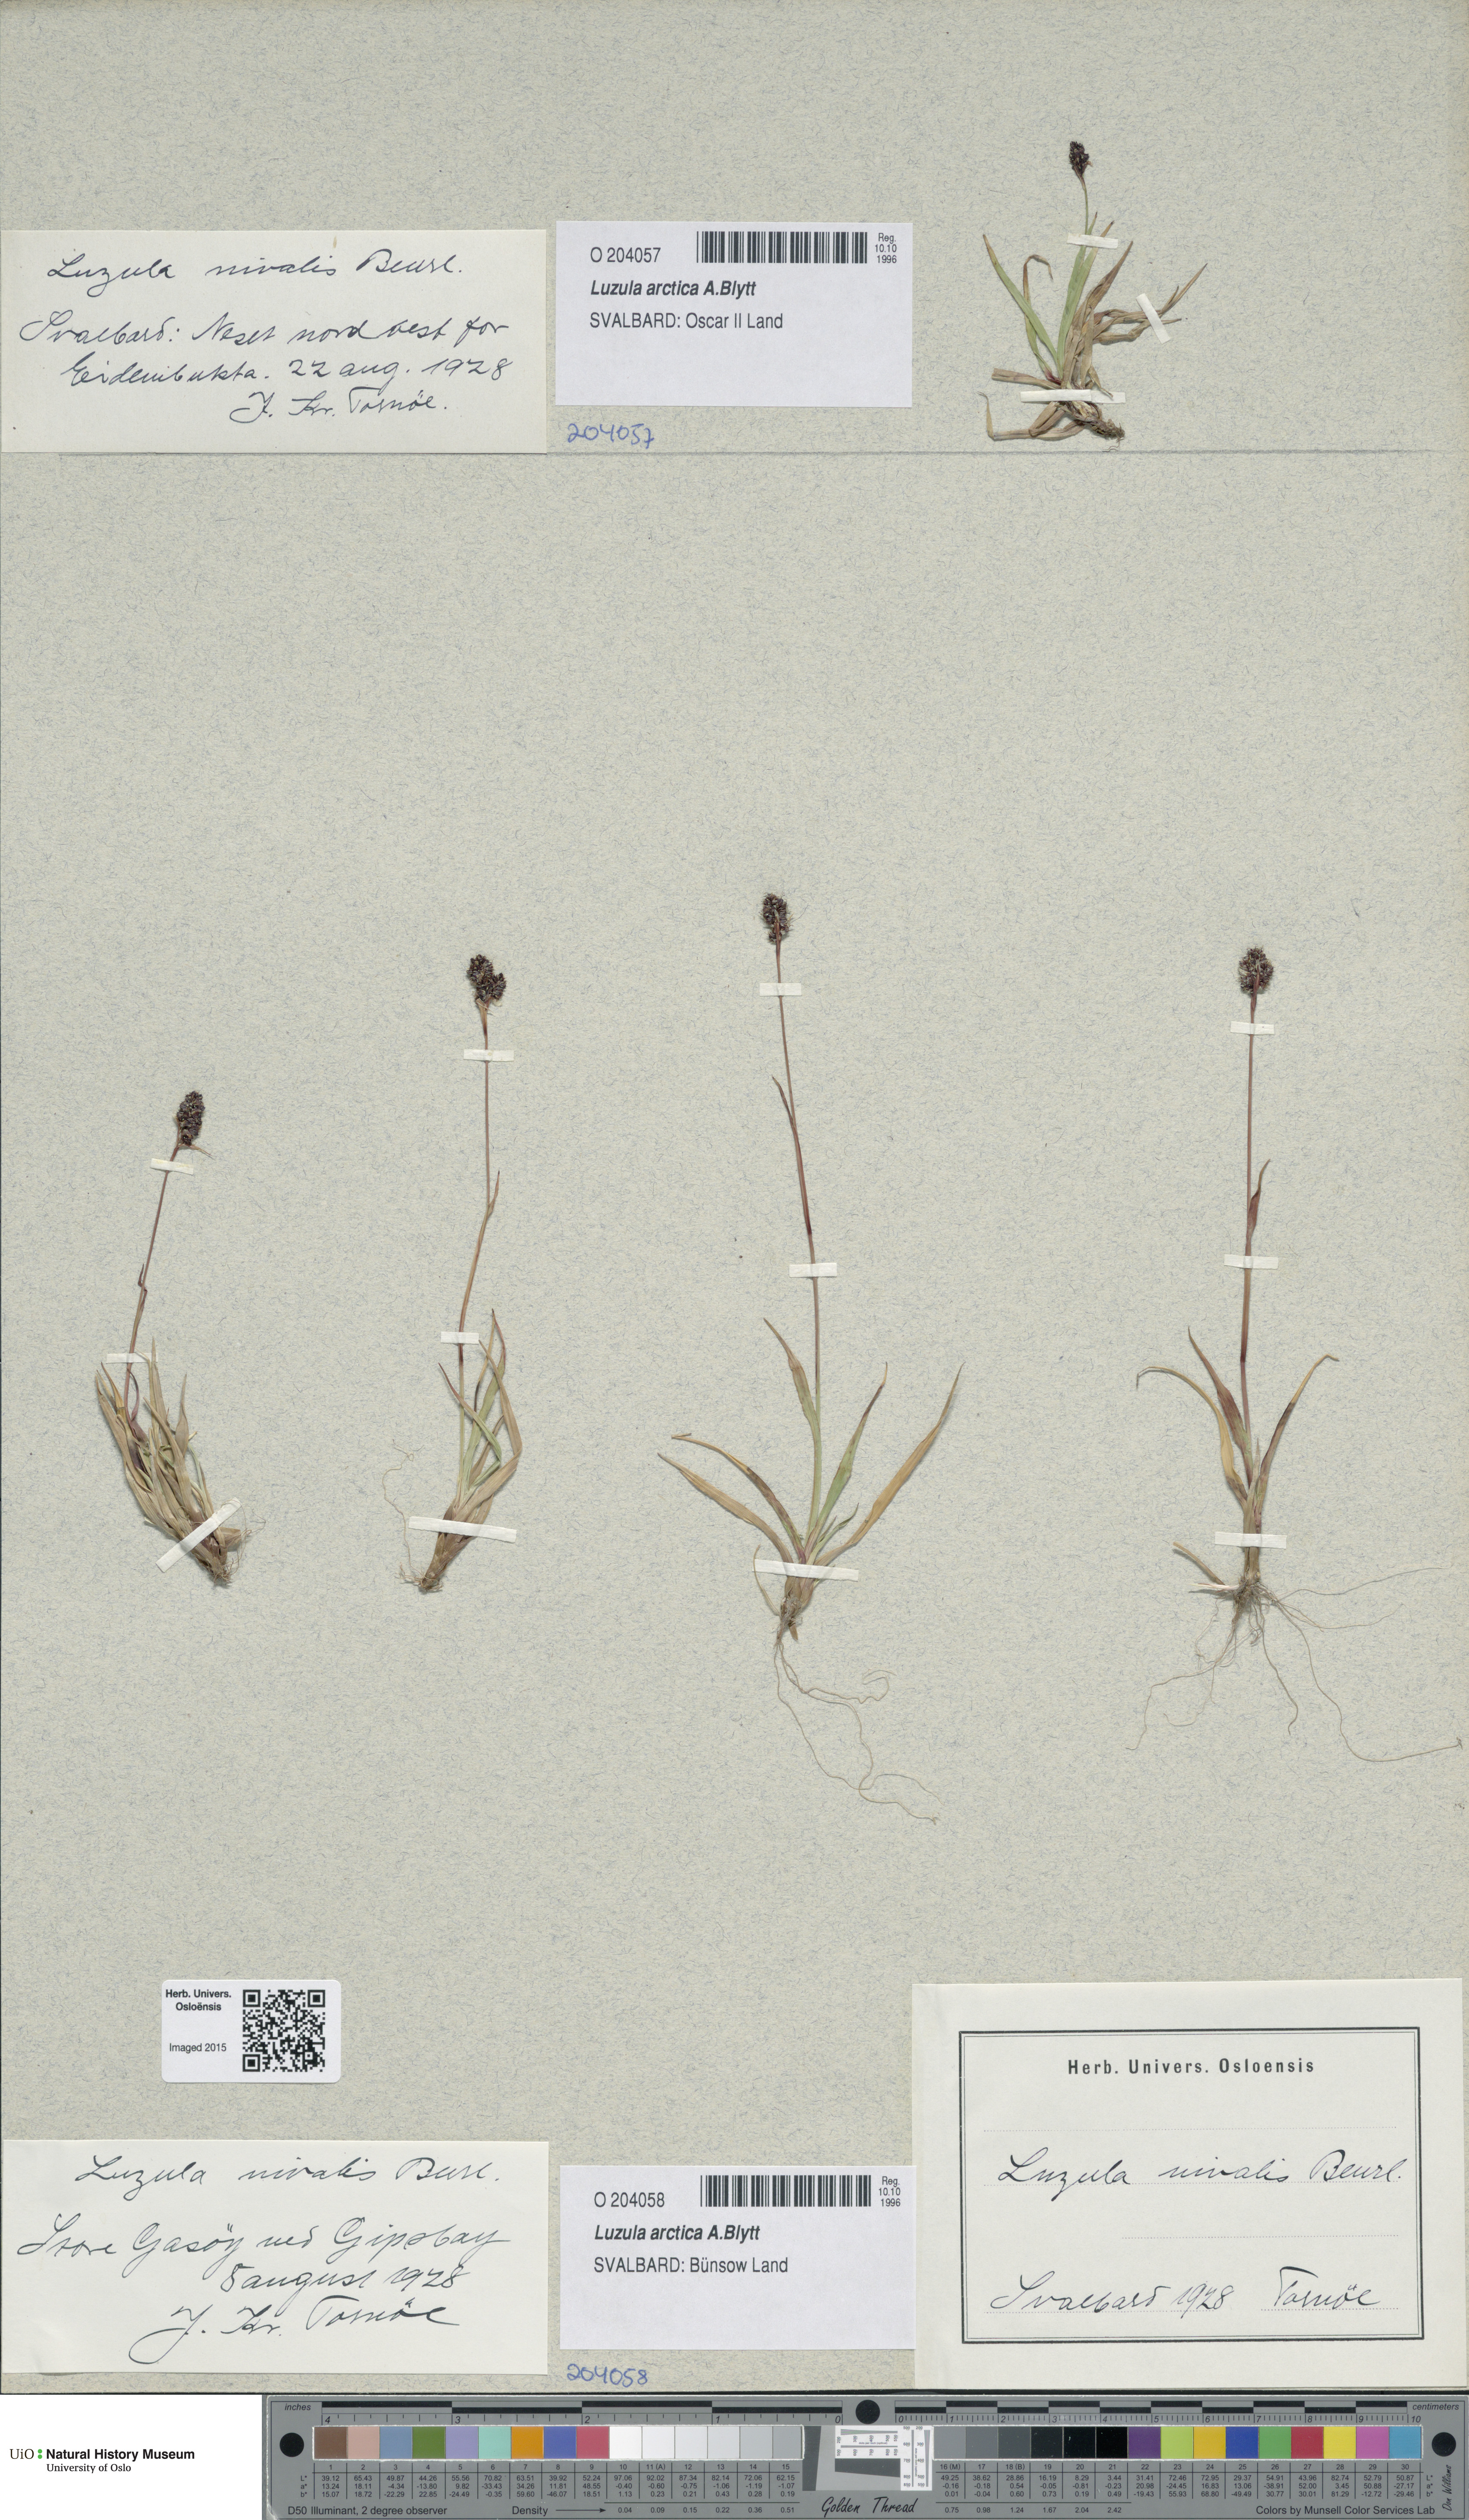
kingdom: Plantae
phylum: Tracheophyta
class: Liliopsida
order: Poales
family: Juncaceae
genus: Luzula
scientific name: Luzula nivalis
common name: Arctic woodrush
